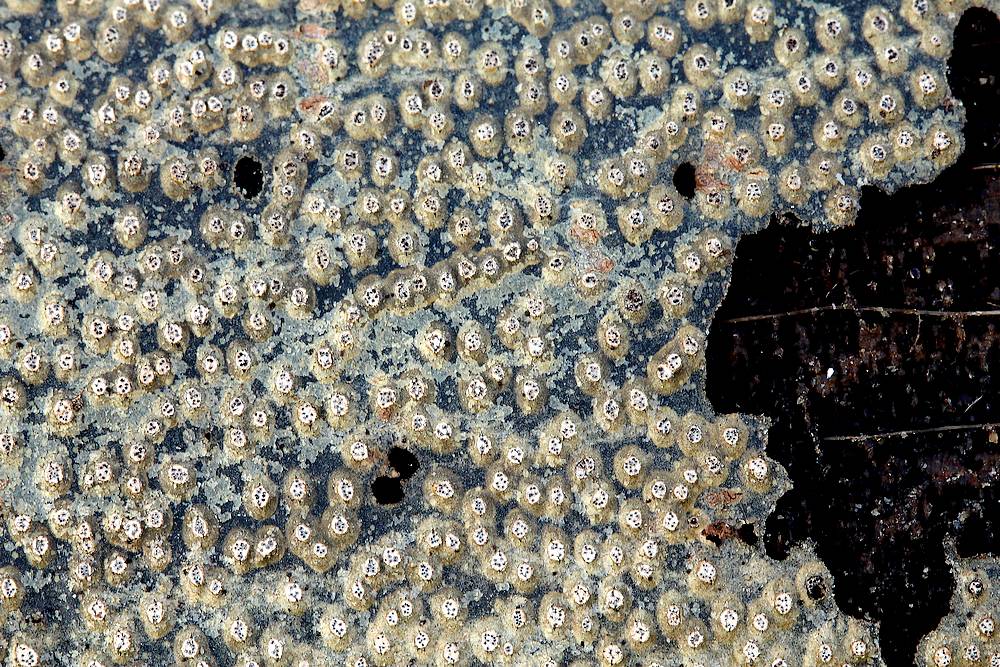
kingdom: Fungi
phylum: Ascomycota
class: Sordariomycetes
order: Diaporthales
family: Valsaceae
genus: Cytospora
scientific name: Cytospora nivea
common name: hvidskivet kulknippe
